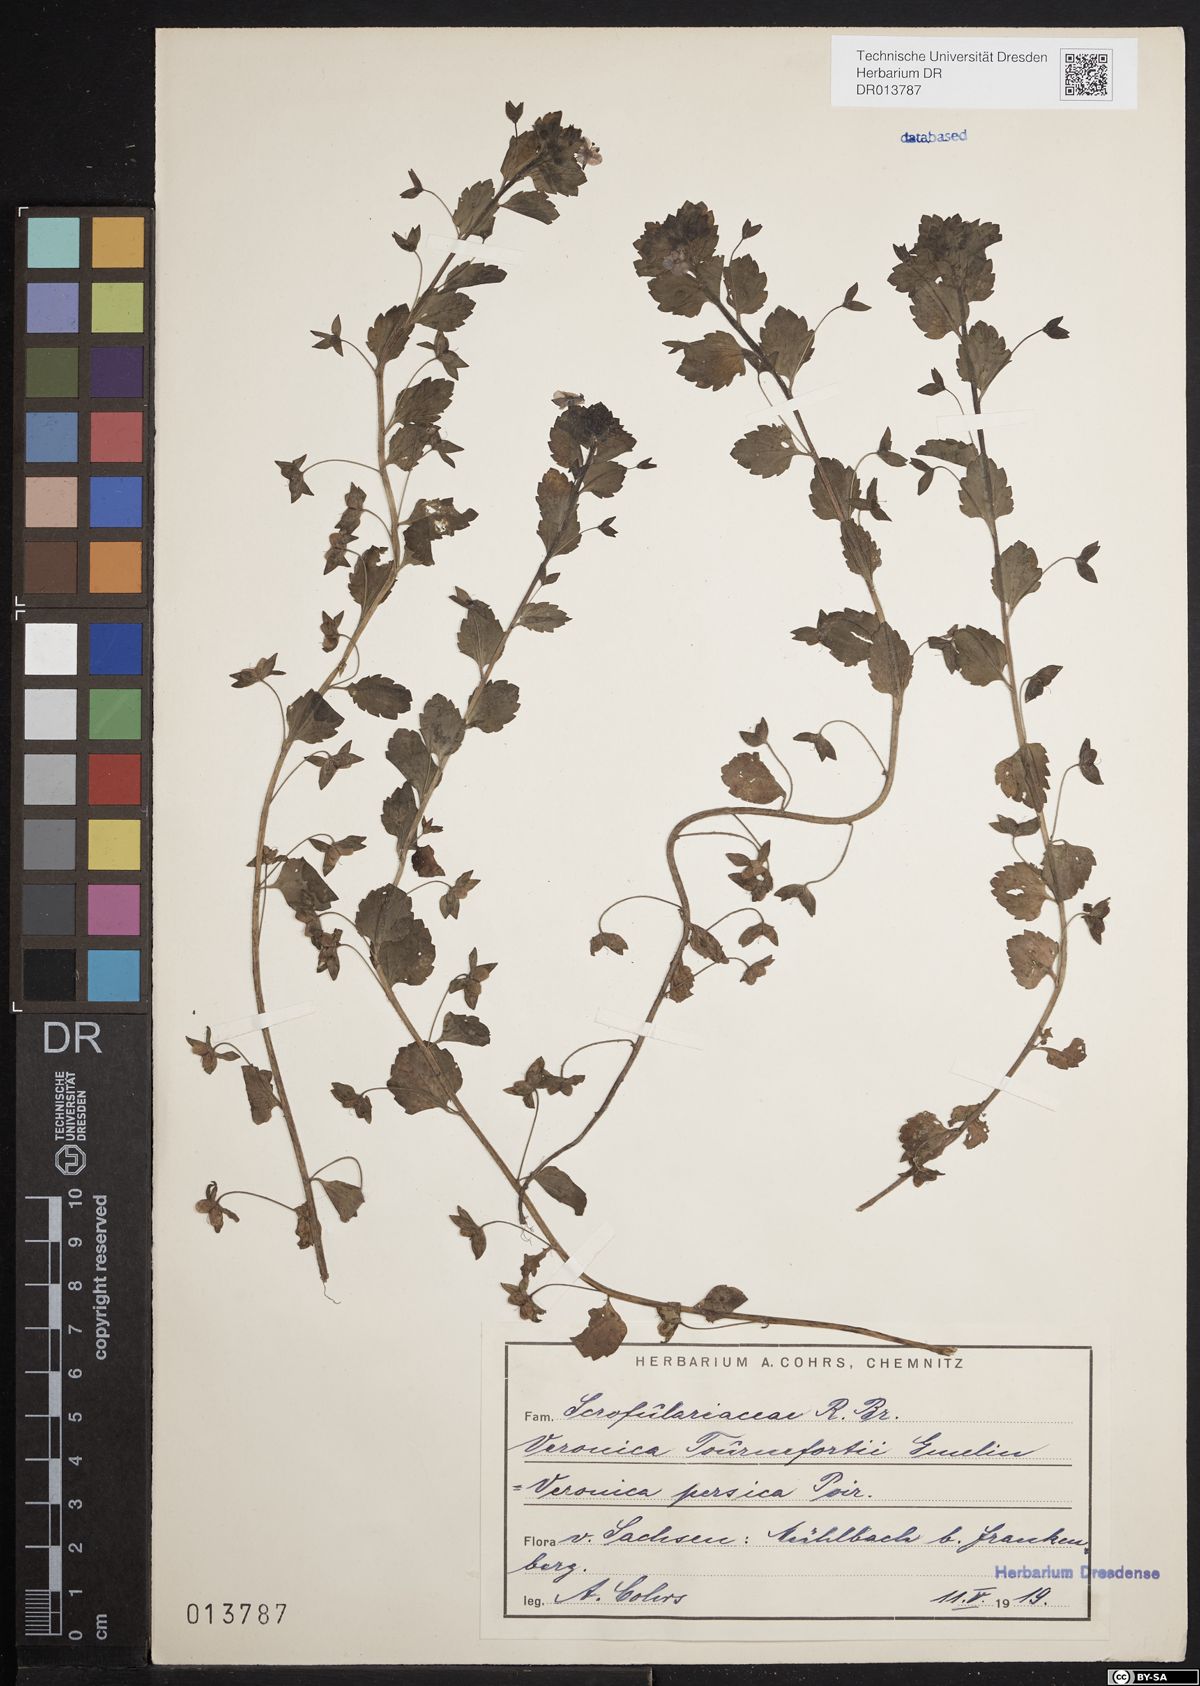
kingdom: Plantae
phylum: Tracheophyta
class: Magnoliopsida
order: Lamiales
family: Plantaginaceae
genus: Veronica
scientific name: Veronica persica
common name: Common field-speedwell
